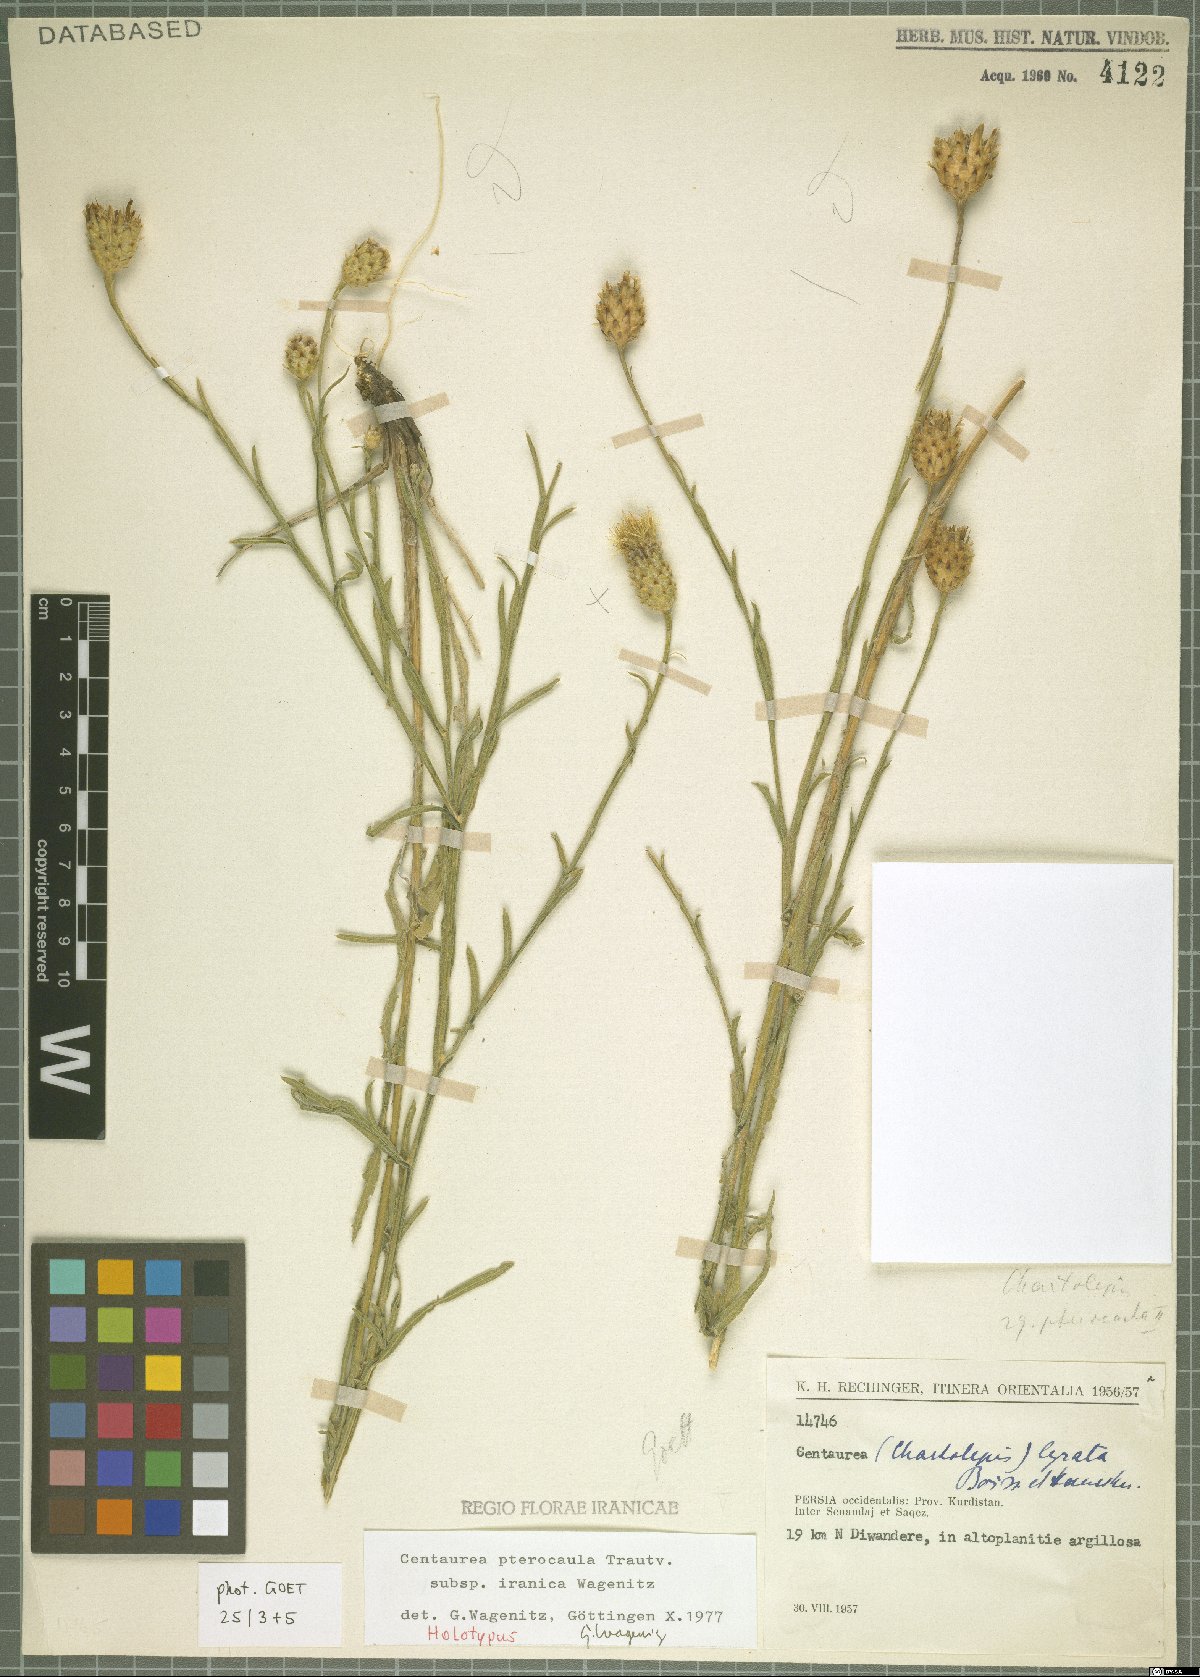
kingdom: Plantae
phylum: Tracheophyta
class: Magnoliopsida
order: Asterales
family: Asteraceae
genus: Centaurea
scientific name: Centaurea pterocaula
